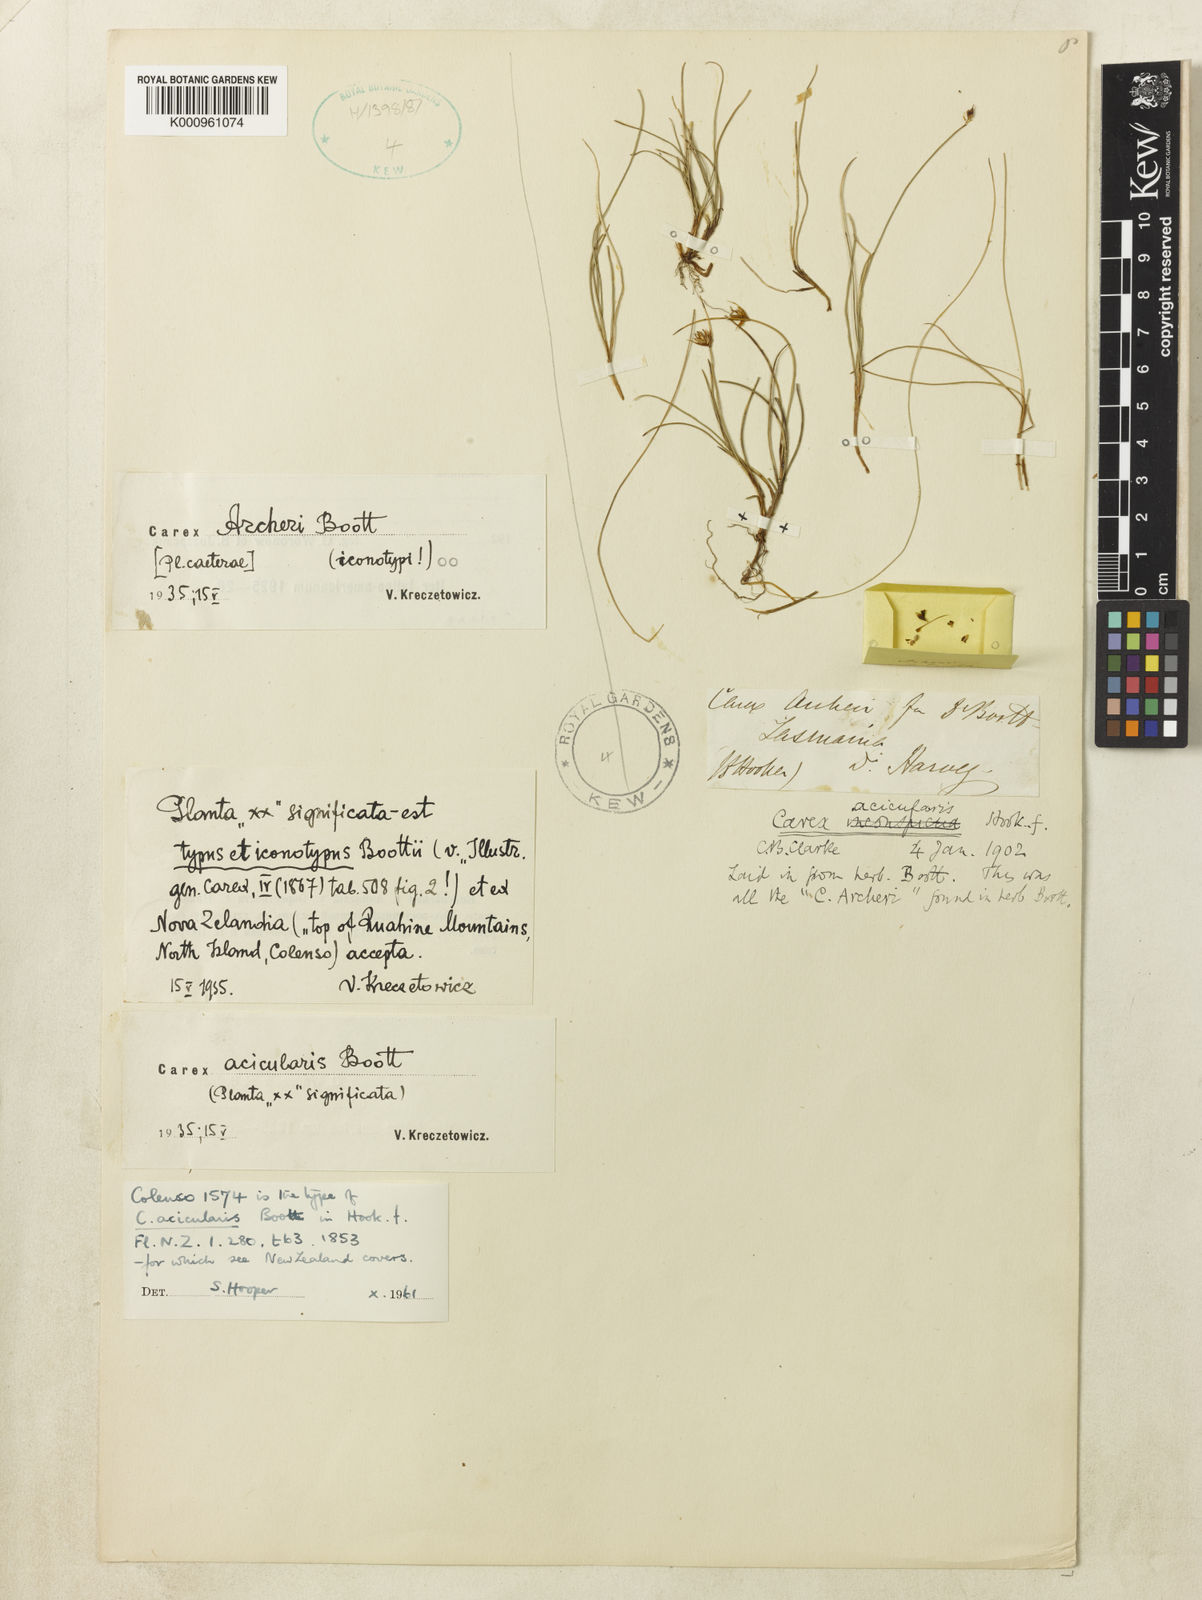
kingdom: Plantae
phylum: Tracheophyta
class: Liliopsida
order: Poales
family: Cyperaceae
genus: Carex
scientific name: Carex acicularis
